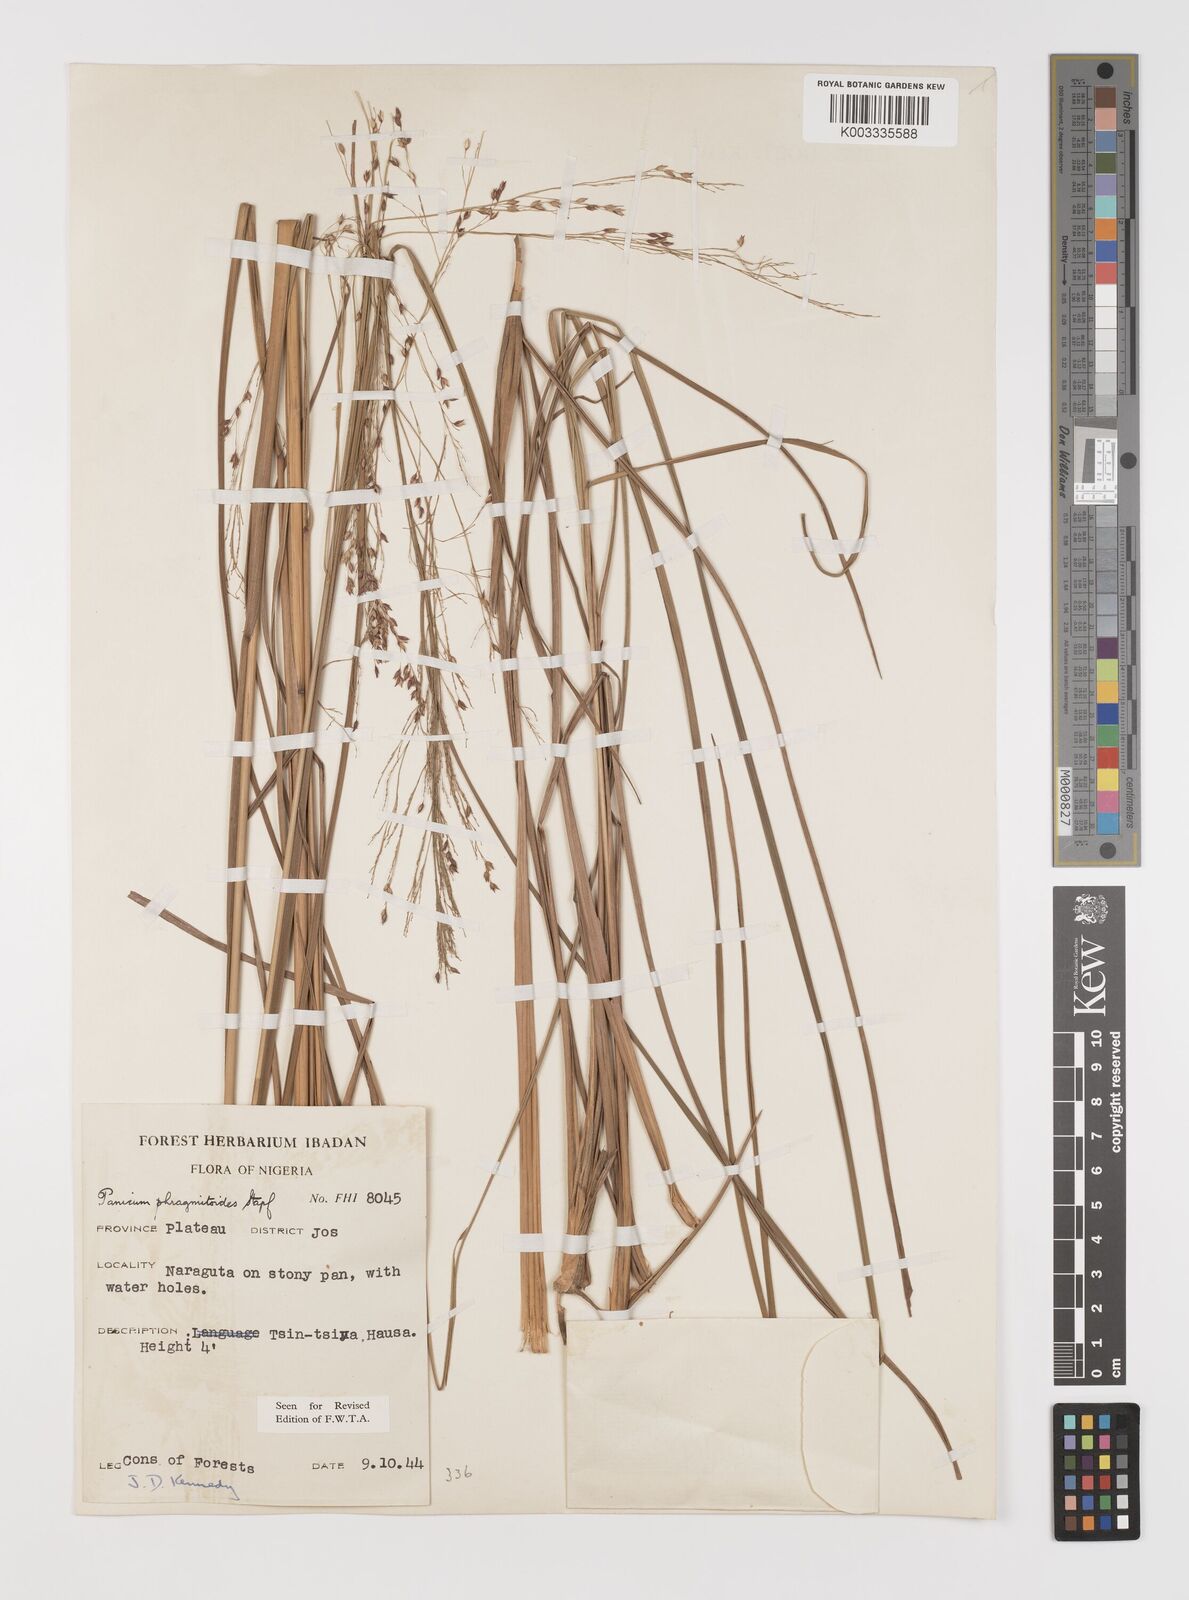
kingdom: Plantae
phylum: Tracheophyta
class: Liliopsida
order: Poales
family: Poaceae
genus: Panicum
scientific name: Panicum phragmitoides
